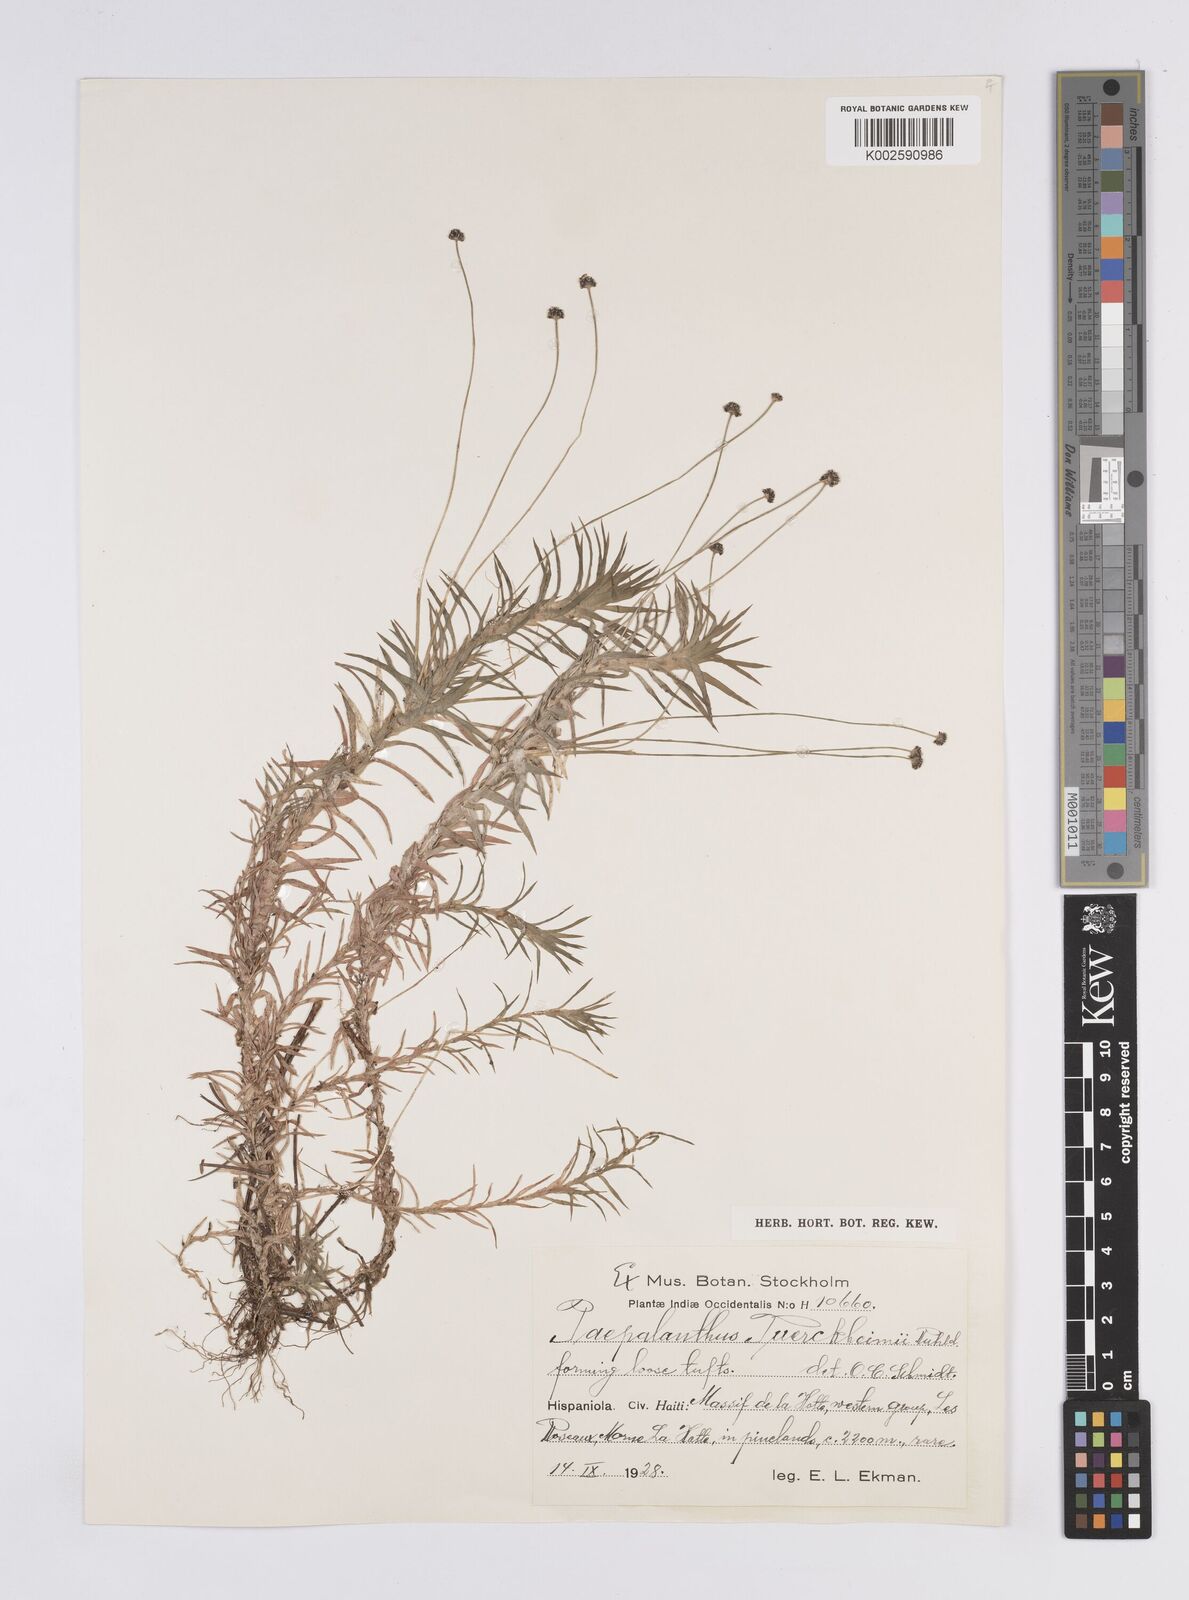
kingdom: Plantae
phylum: Tracheophyta
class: Liliopsida
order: Poales
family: Eriocaulaceae
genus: Paepalanthus
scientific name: Paepalanthus repens
